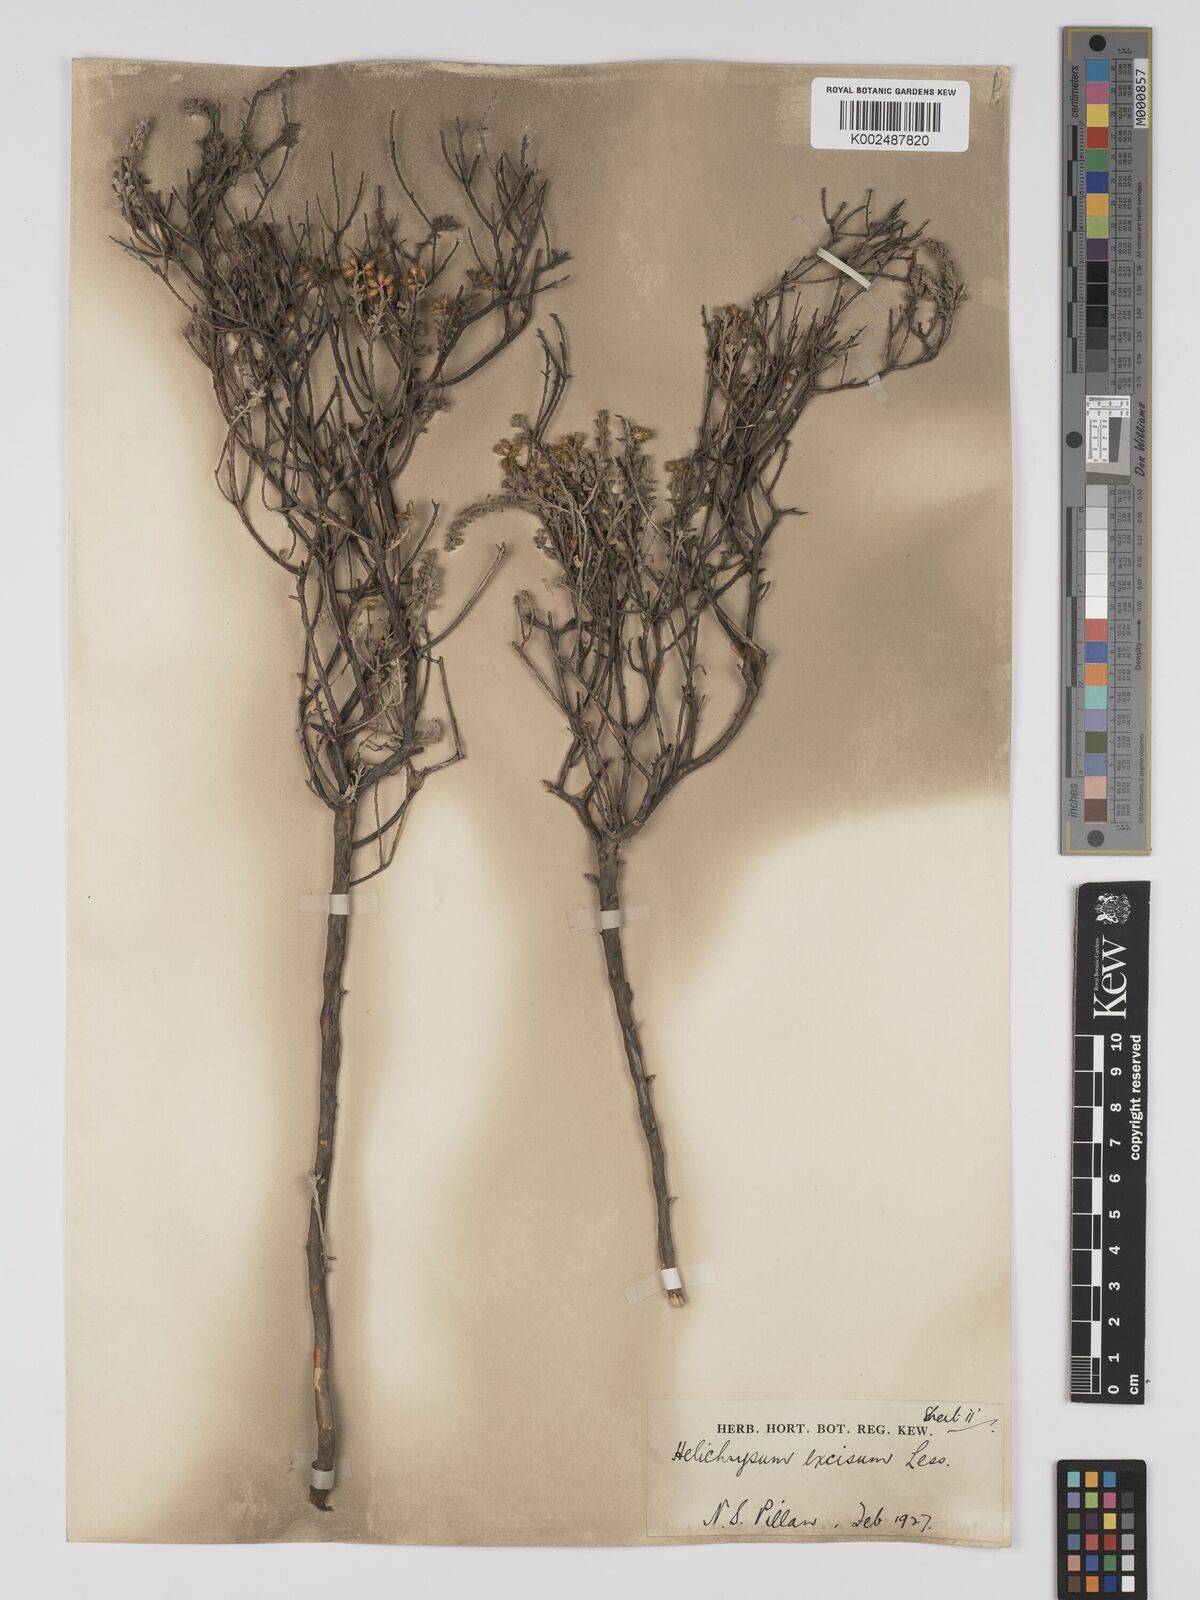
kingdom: Plantae
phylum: Tracheophyta
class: Magnoliopsida
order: Asterales
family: Asteraceae
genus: Helichrysum
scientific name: Helichrysum excisum
